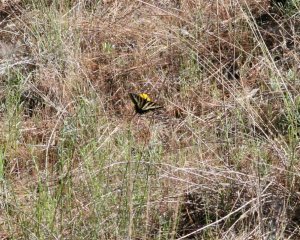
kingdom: Animalia
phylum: Arthropoda
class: Insecta
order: Lepidoptera
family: Papilionidae
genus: Pterourus
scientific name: Pterourus rutulus
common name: Western Tiger Swallowtail
